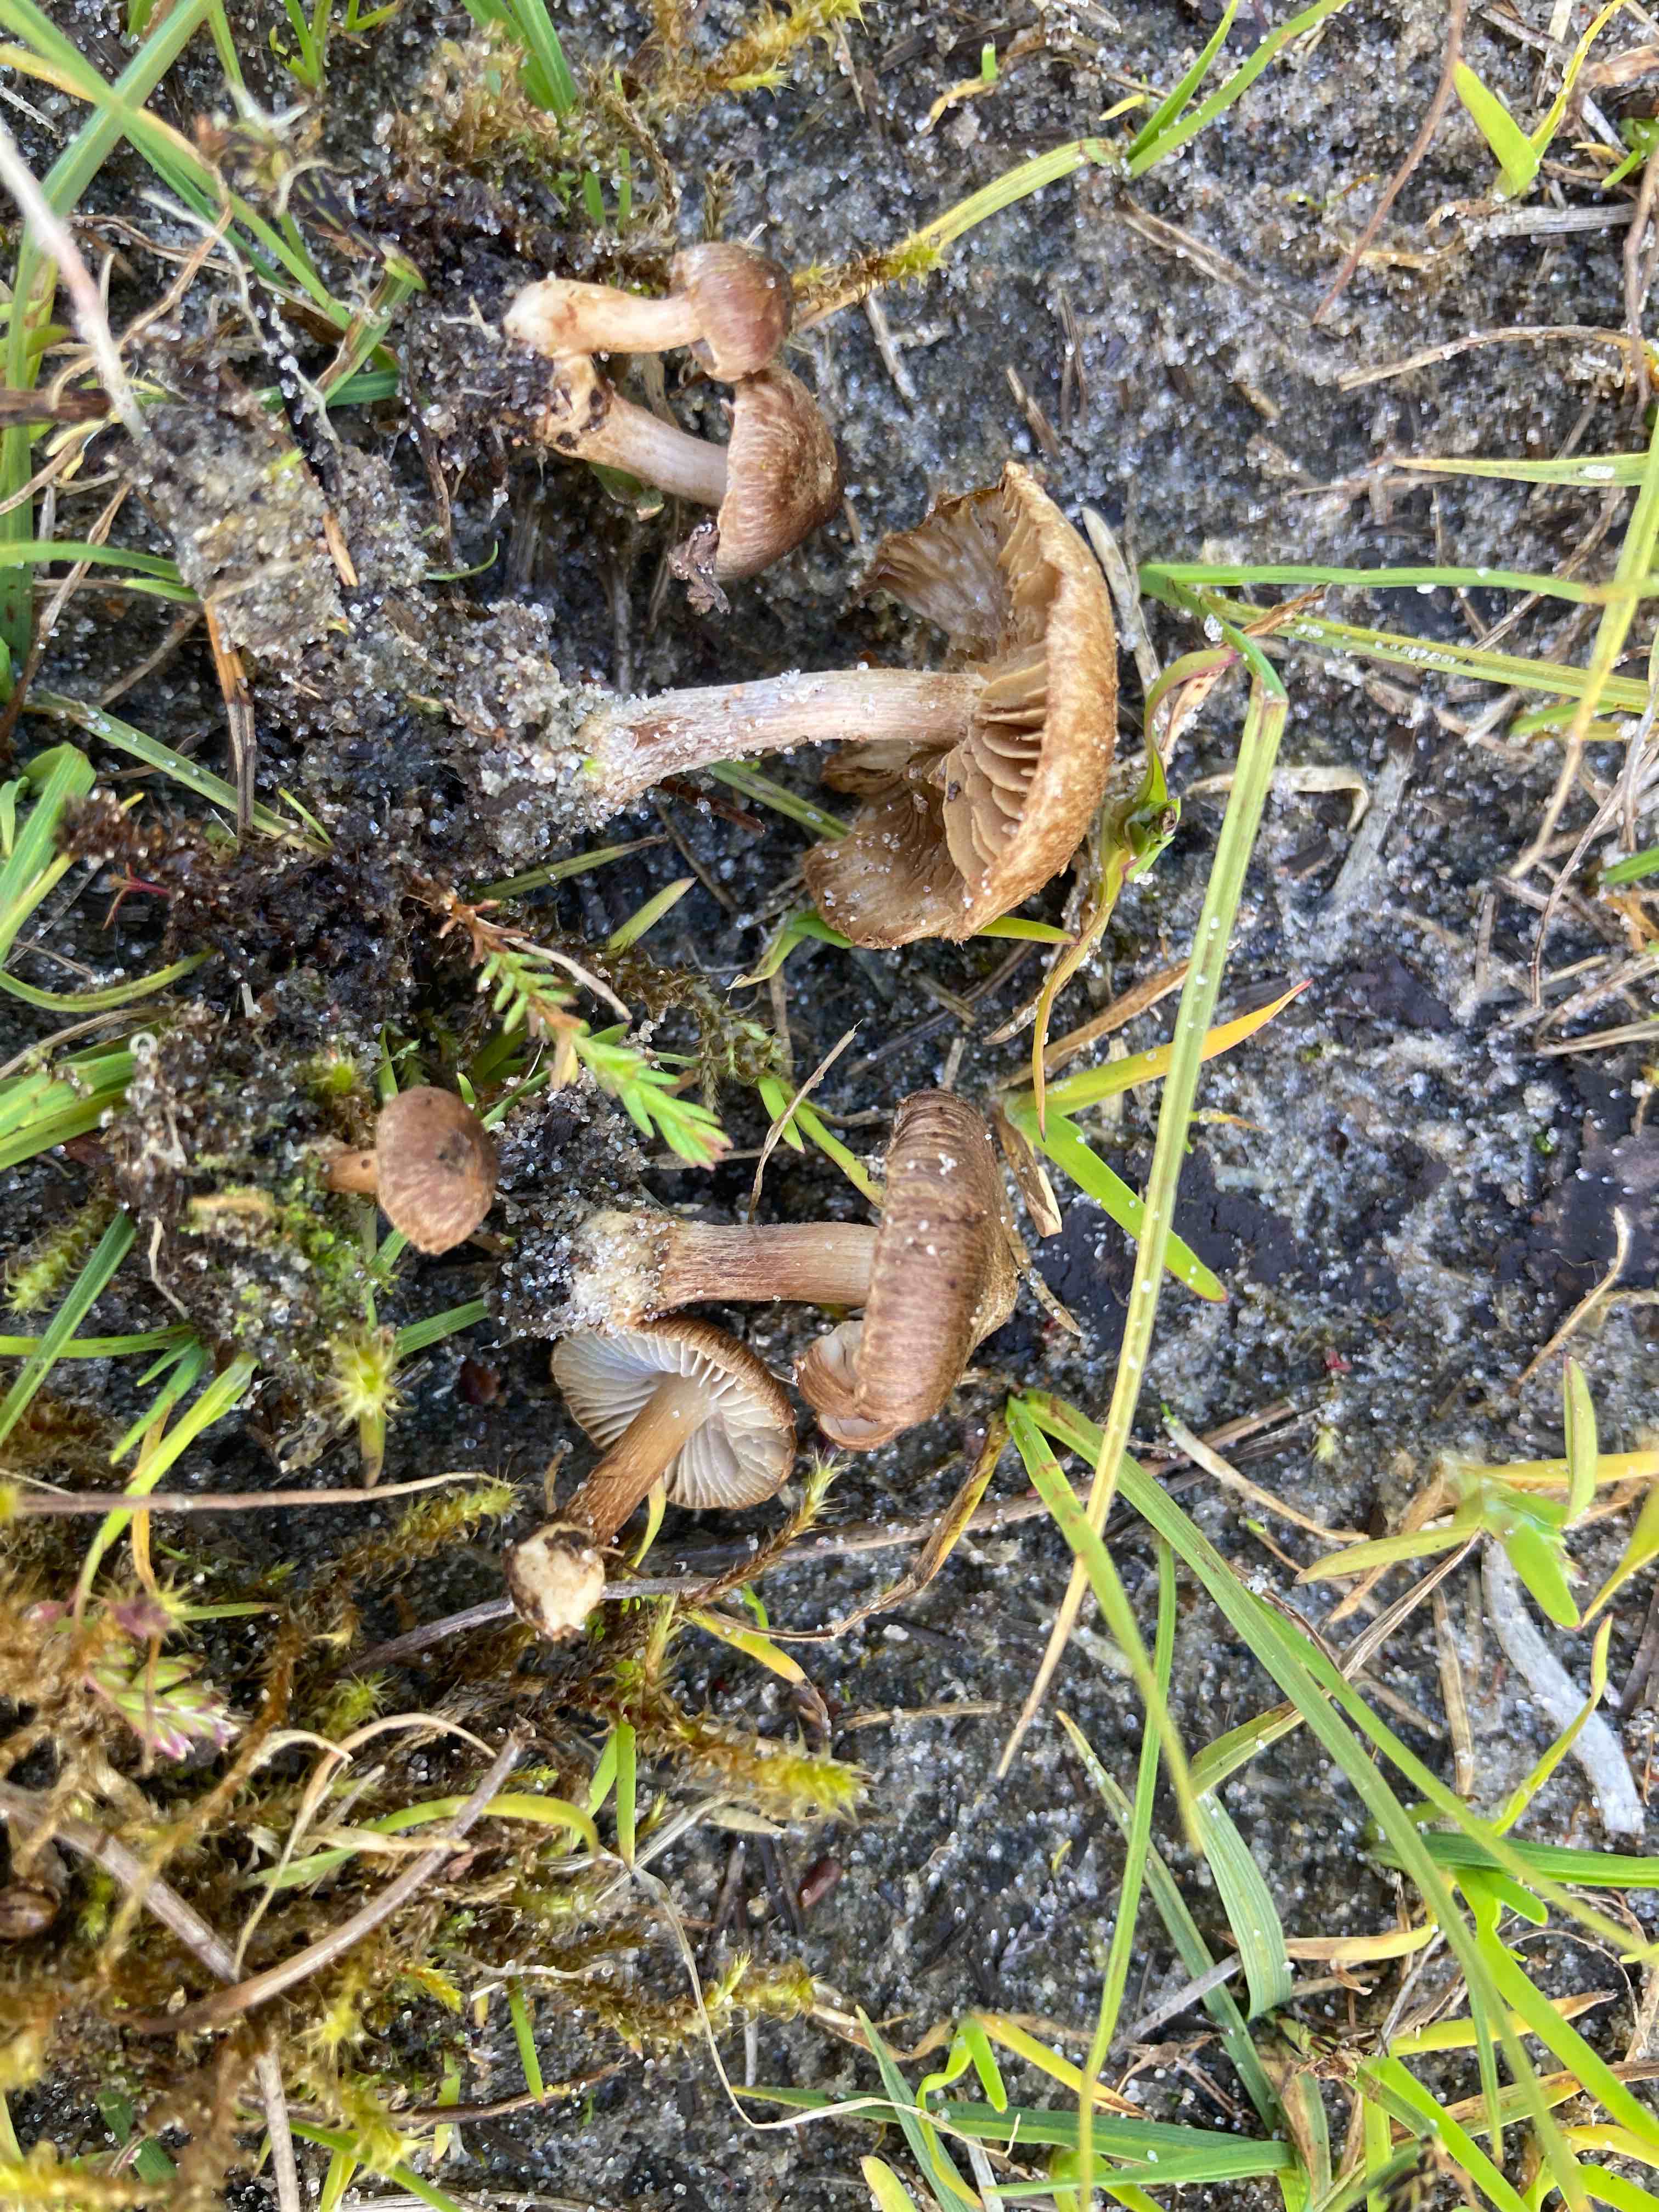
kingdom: Fungi
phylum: Basidiomycota
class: Agaricomycetes
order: Agaricales
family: Inocybaceae
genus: Inocybe
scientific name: Inocybe
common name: trævlhat
